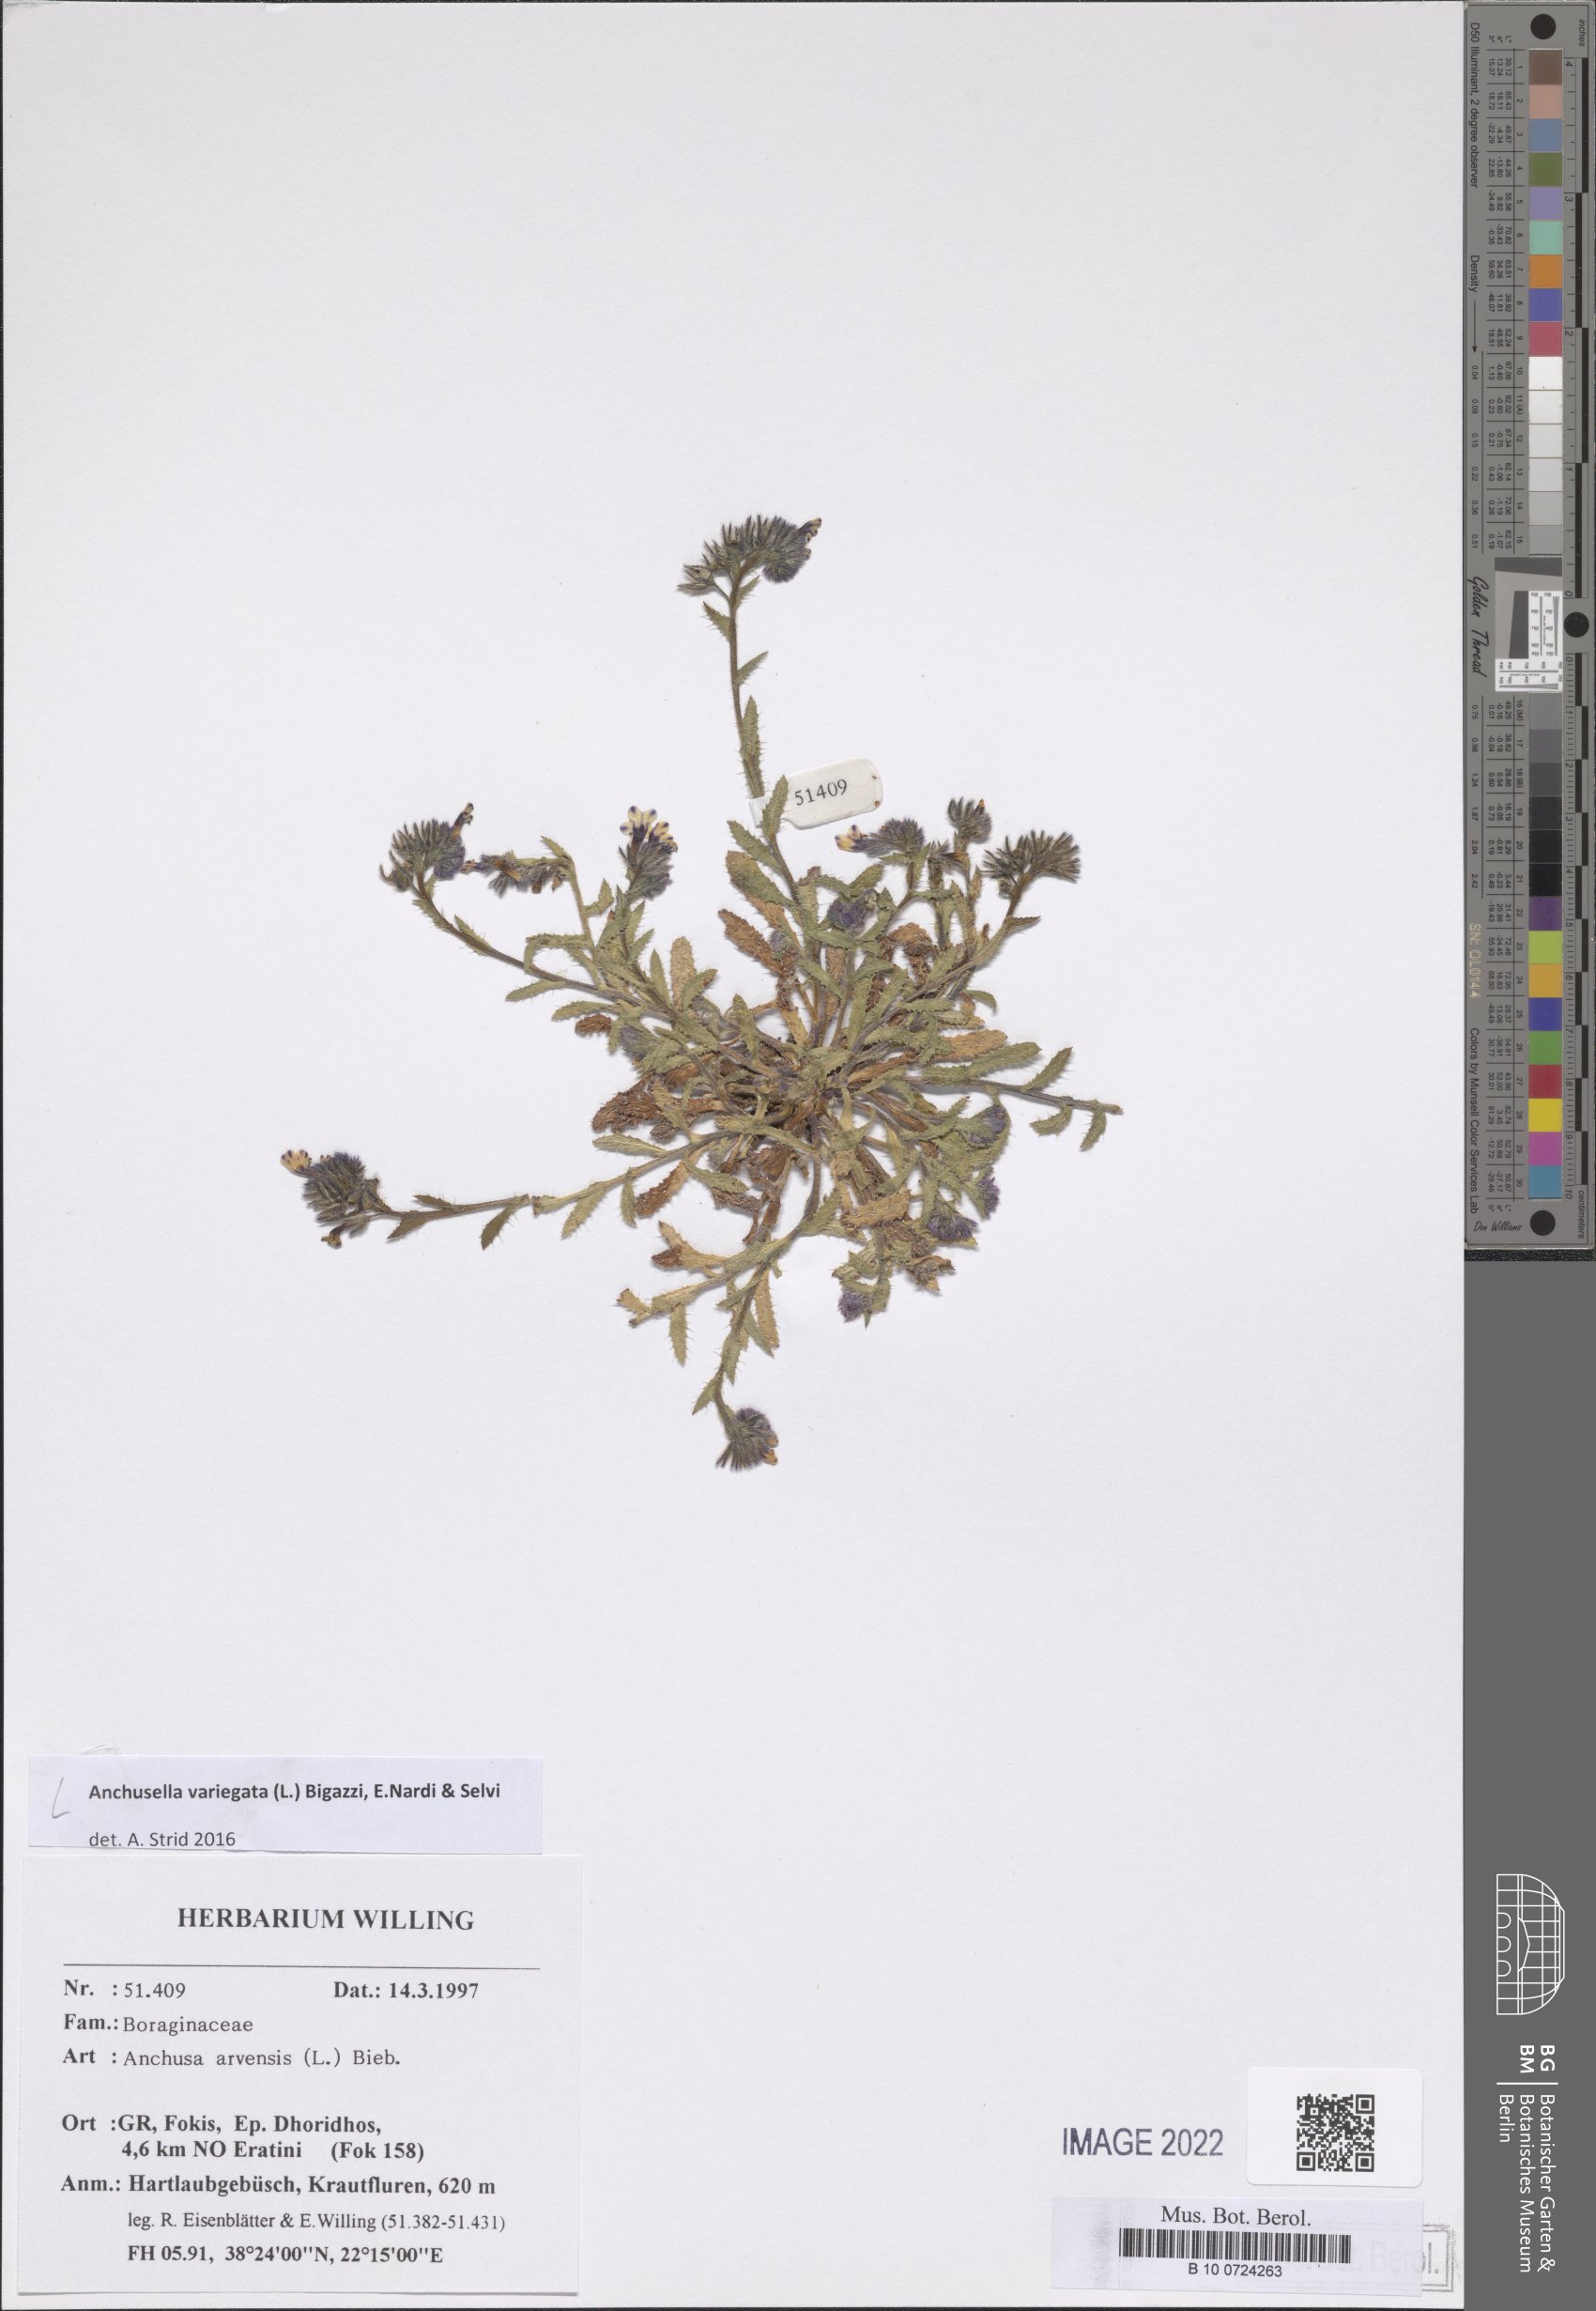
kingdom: Plantae
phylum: Tracheophyta
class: Magnoliopsida
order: Boraginales
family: Boraginaceae
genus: Anchusella
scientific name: Anchusella variegata
